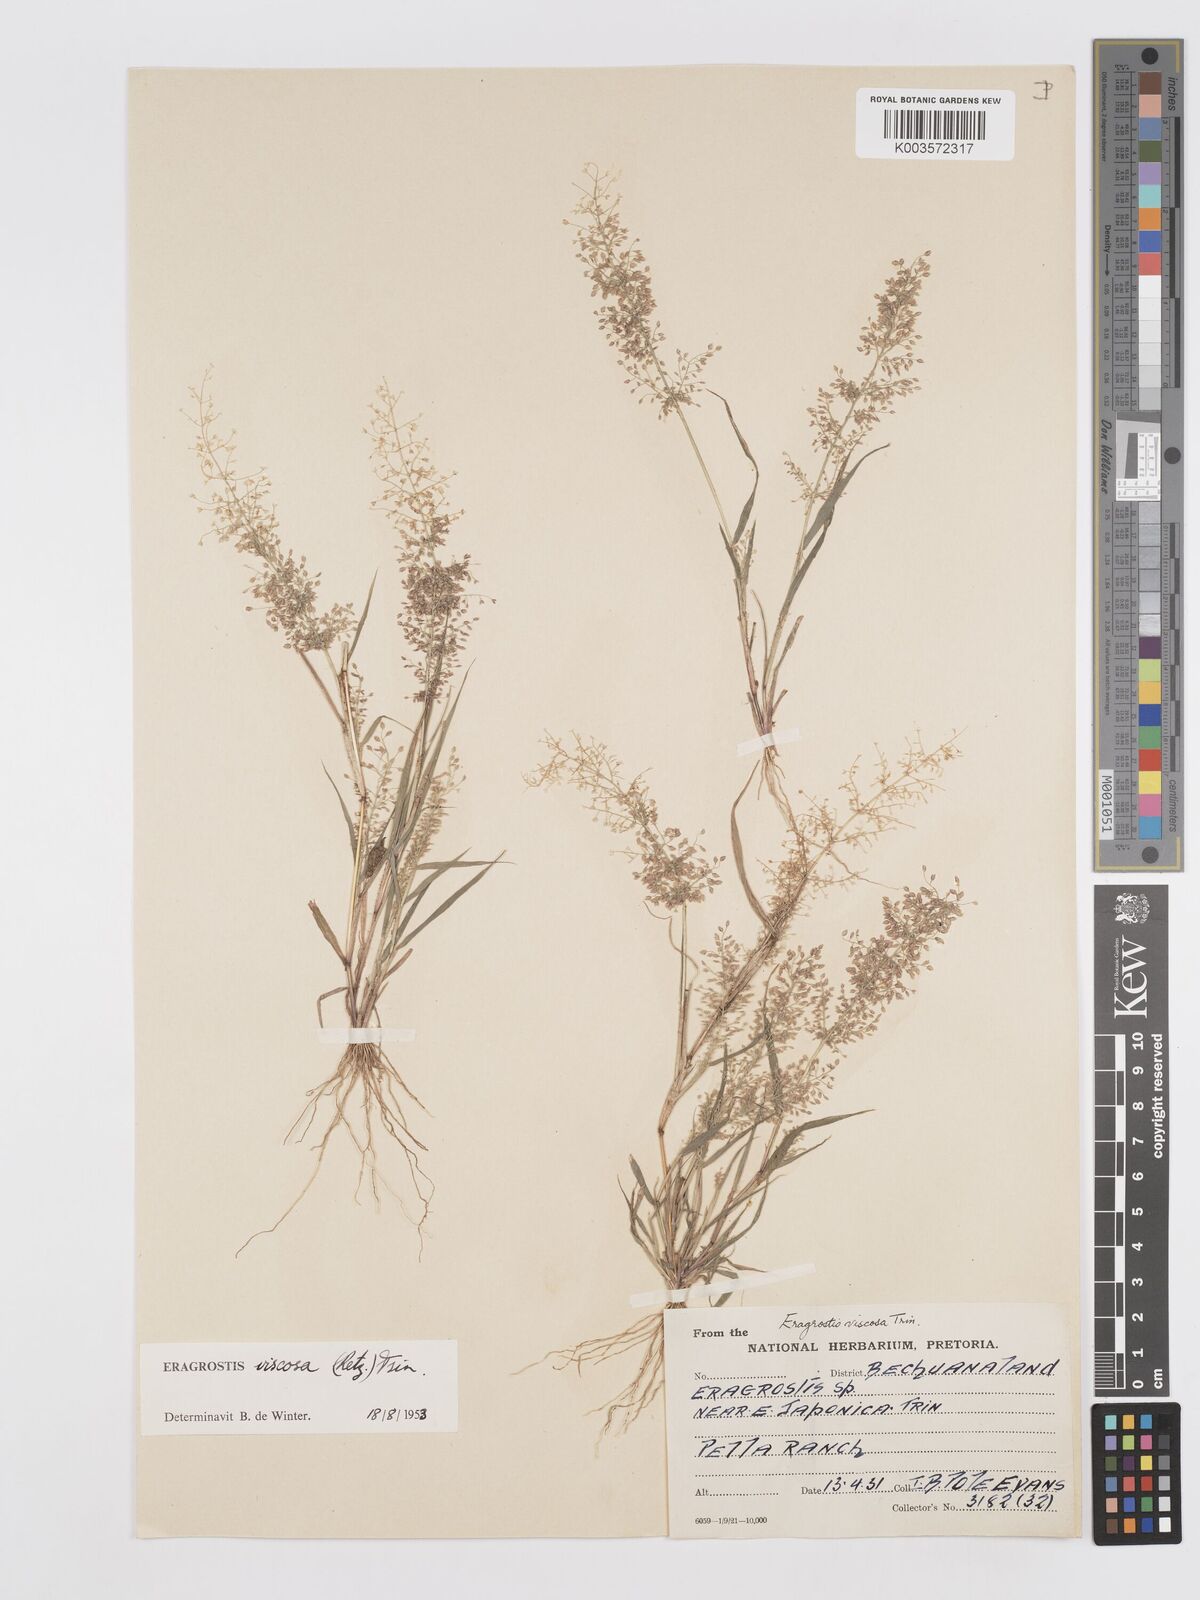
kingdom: Plantae
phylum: Tracheophyta
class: Liliopsida
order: Poales
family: Poaceae
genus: Eragrostis
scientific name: Eragrostis
